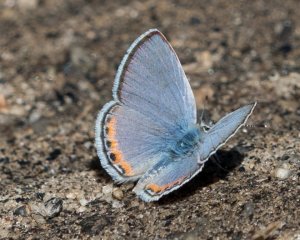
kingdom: Animalia
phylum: Arthropoda
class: Insecta
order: Lepidoptera
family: Lycaenidae
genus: Plebejus
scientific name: Plebejus acmon
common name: Acmon Blue
